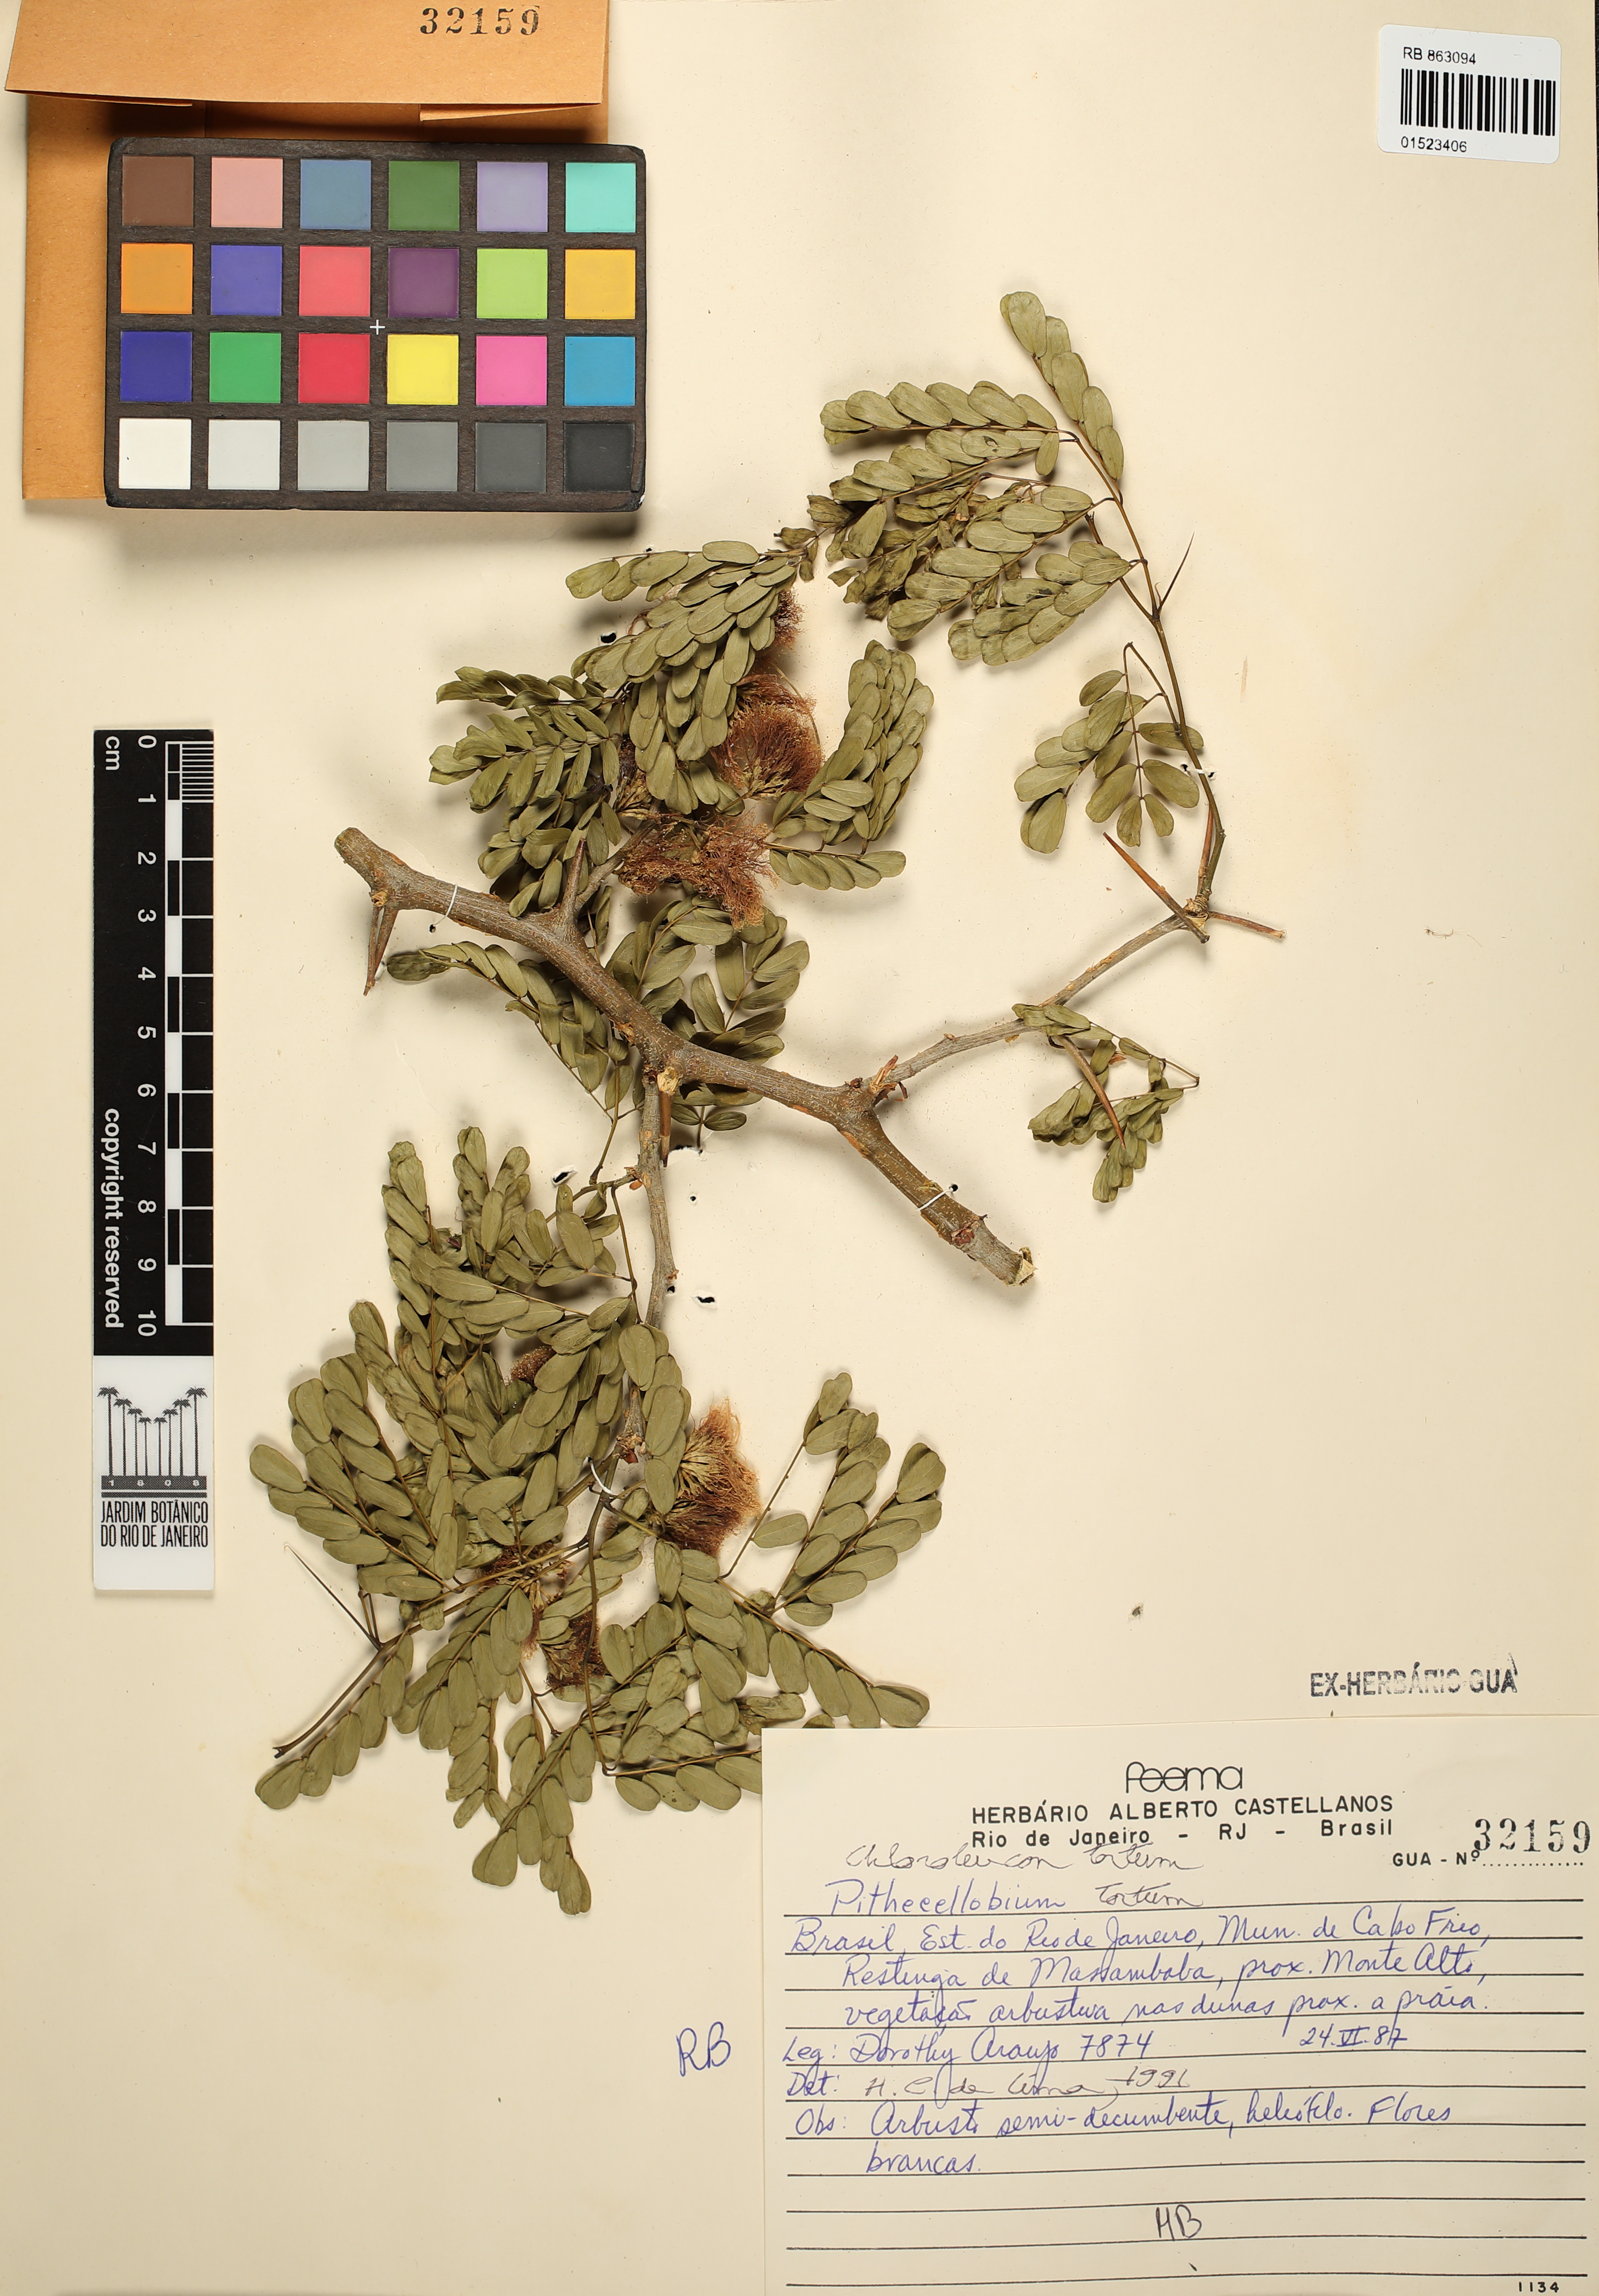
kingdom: Plantae
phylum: Tracheophyta
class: Magnoliopsida
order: Fabales
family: Fabaceae
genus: Chloroleucon
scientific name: Chloroleucon tortum
